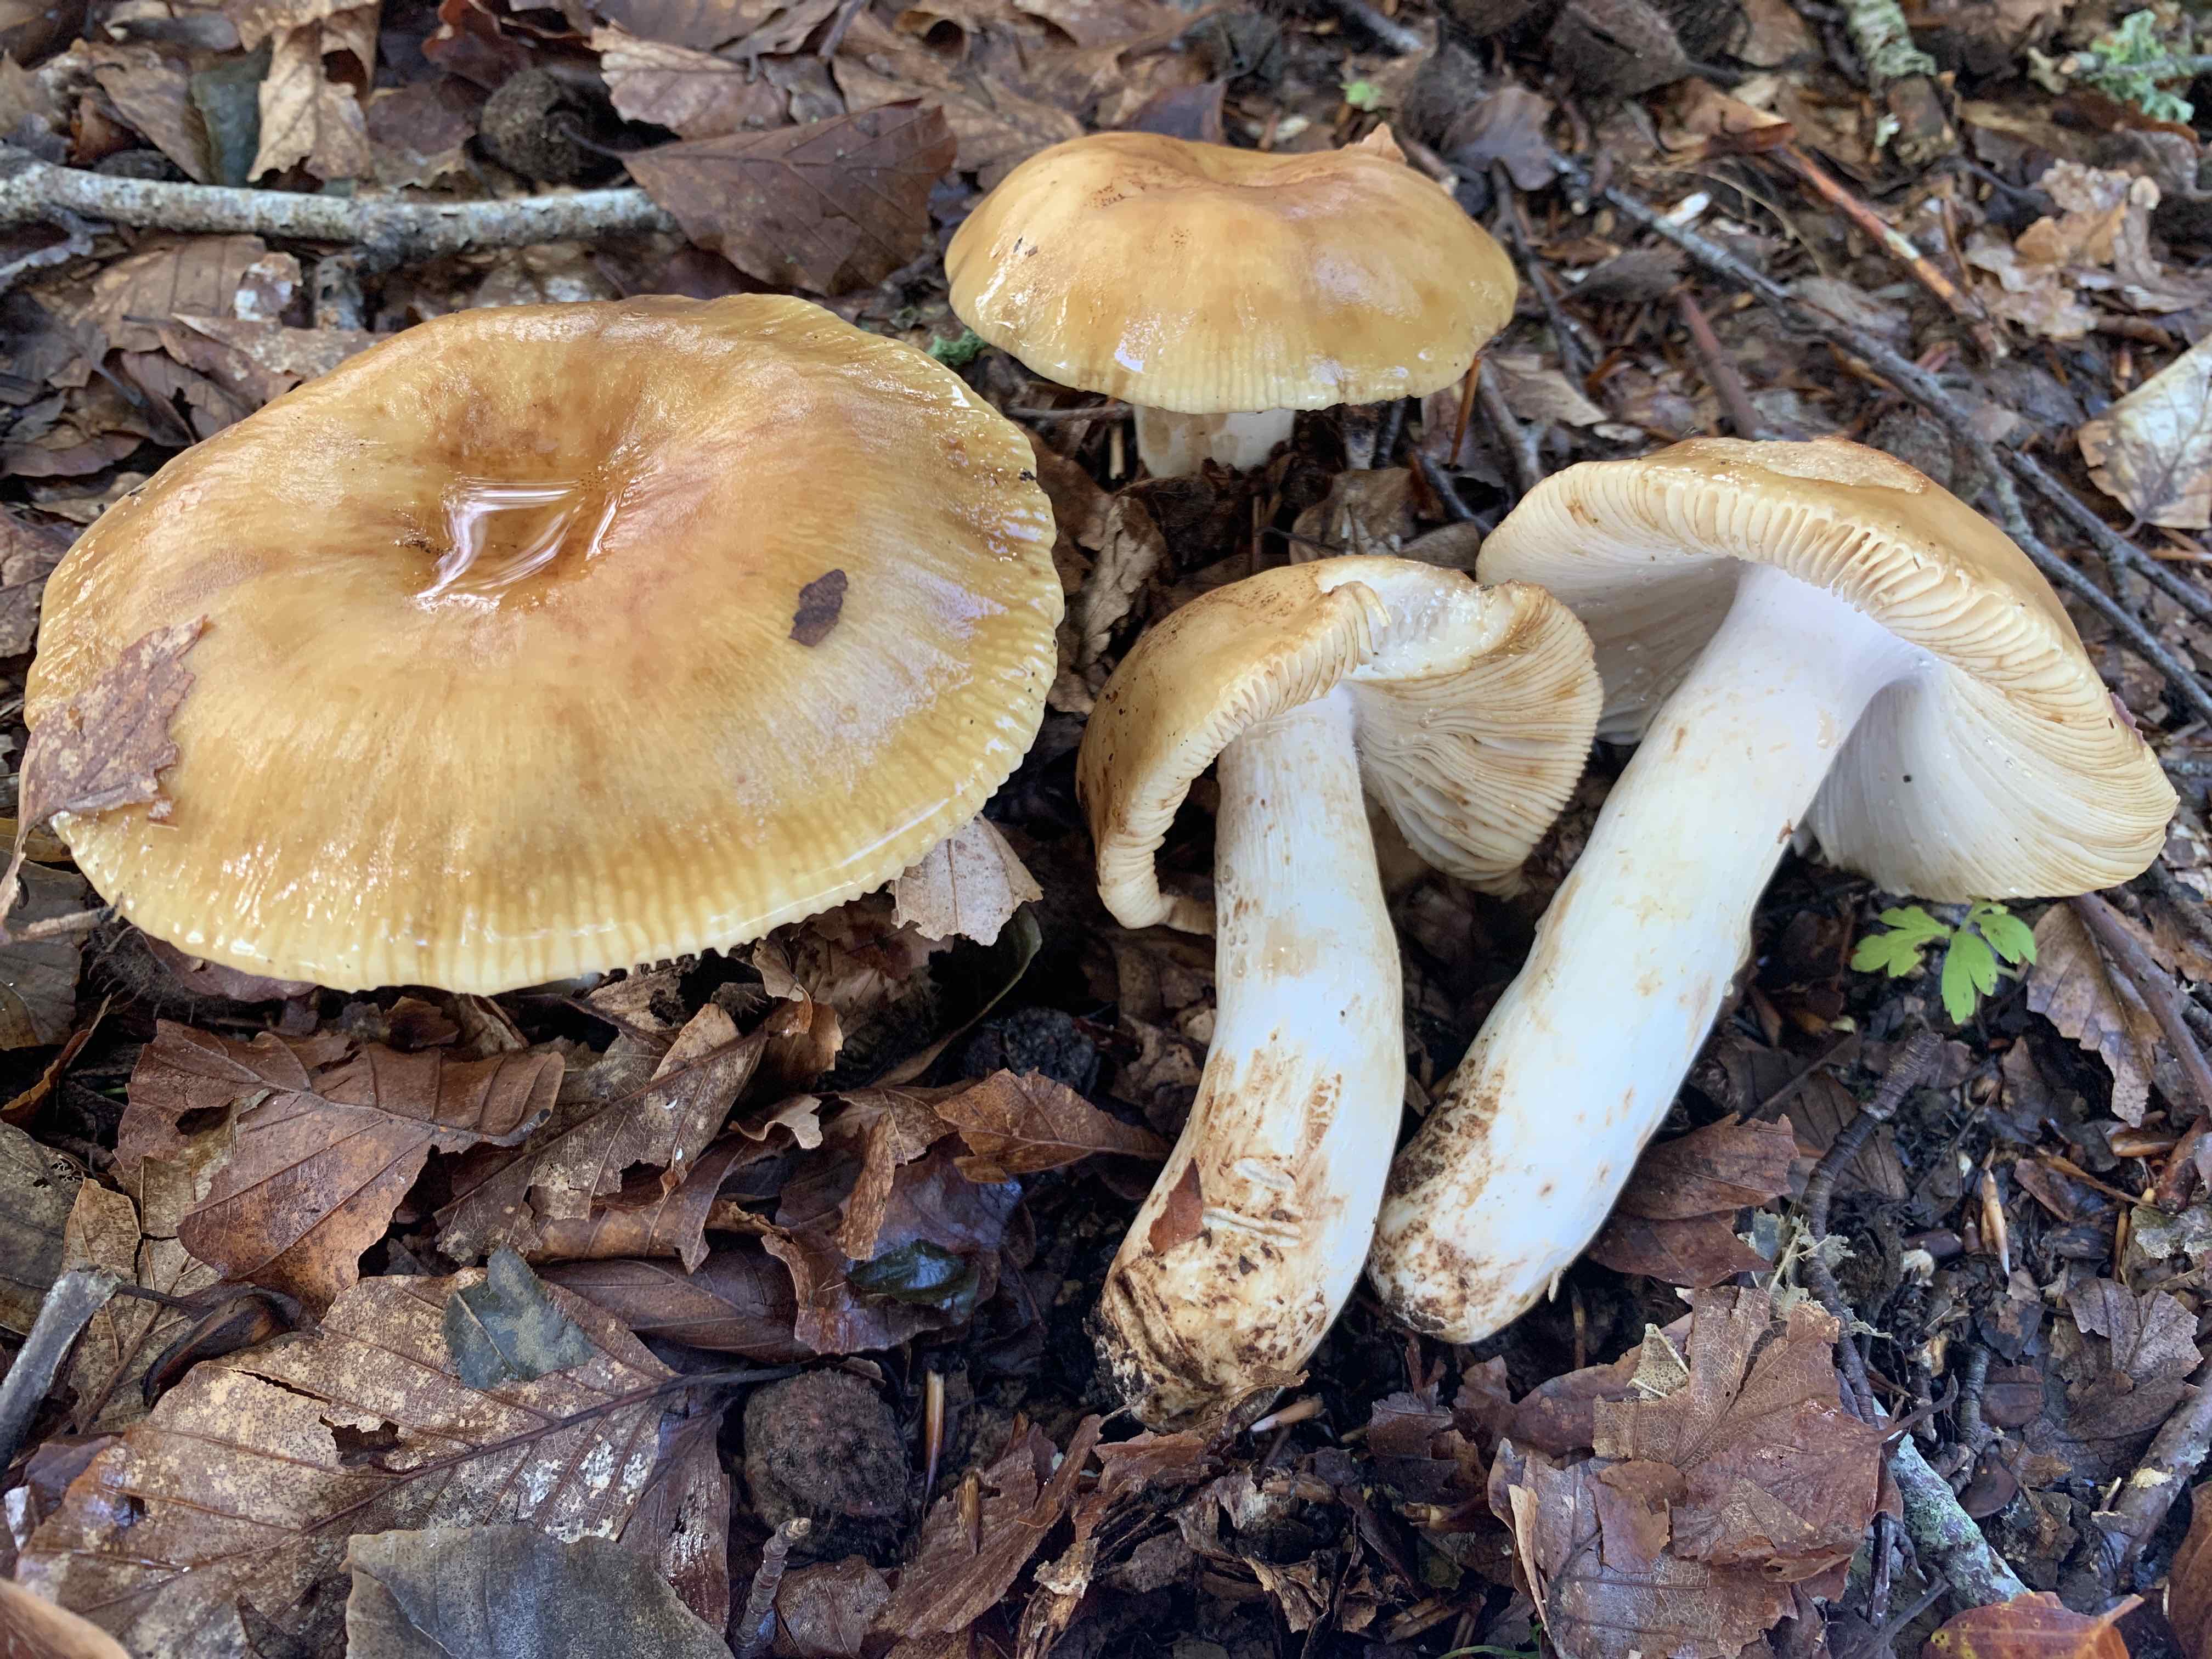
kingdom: Fungi
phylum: Basidiomycota
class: Agaricomycetes
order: Russulales
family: Russulaceae
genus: Russula
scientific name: Russula grata
